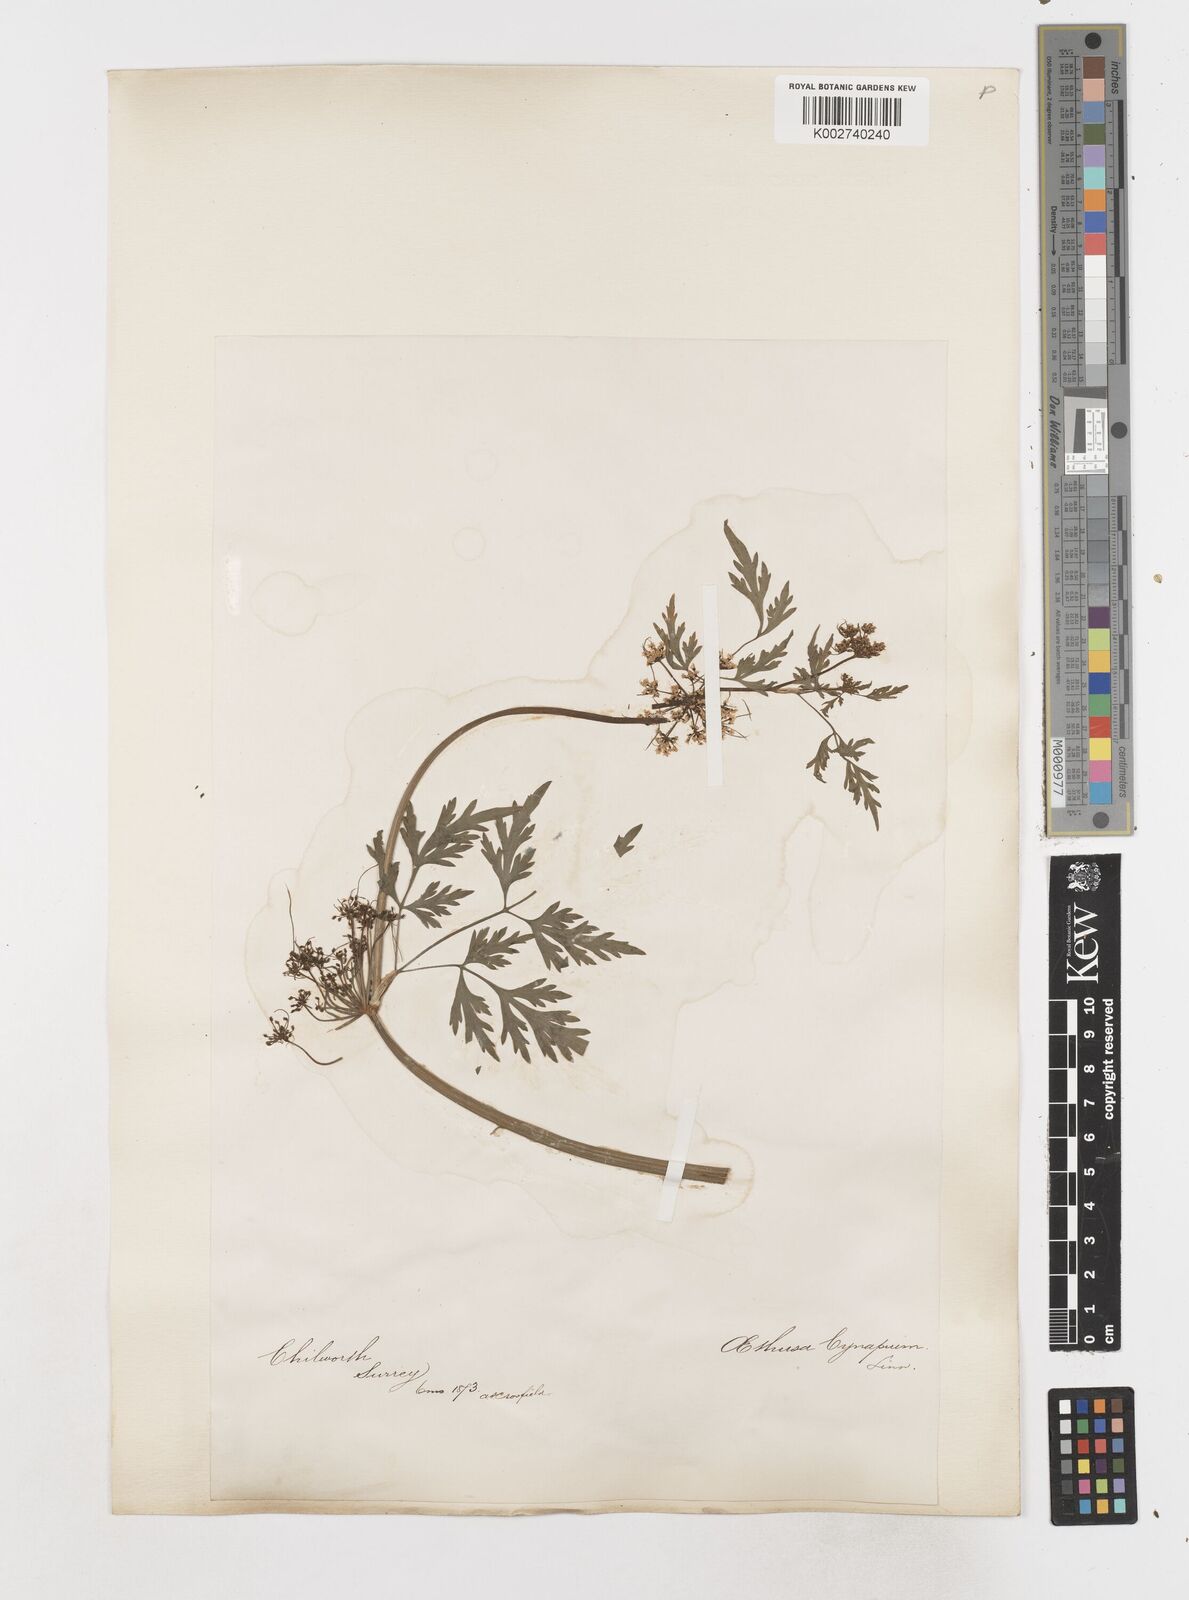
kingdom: Plantae
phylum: Tracheophyta
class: Magnoliopsida
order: Apiales
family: Apiaceae
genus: Aethusa
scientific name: Aethusa cynapium
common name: Fool's parsley
